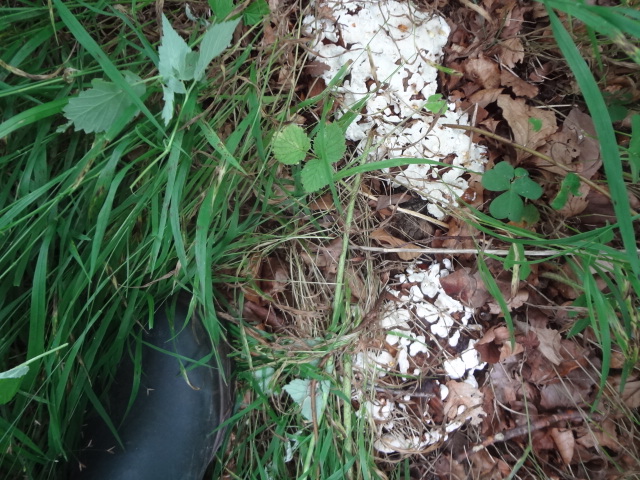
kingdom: Fungi
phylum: Basidiomycota
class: Agaricomycetes
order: Russulales
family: Bondarzewiaceae
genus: Heterobasidion
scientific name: Heterobasidion annosum
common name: almindelig rodfordærver
